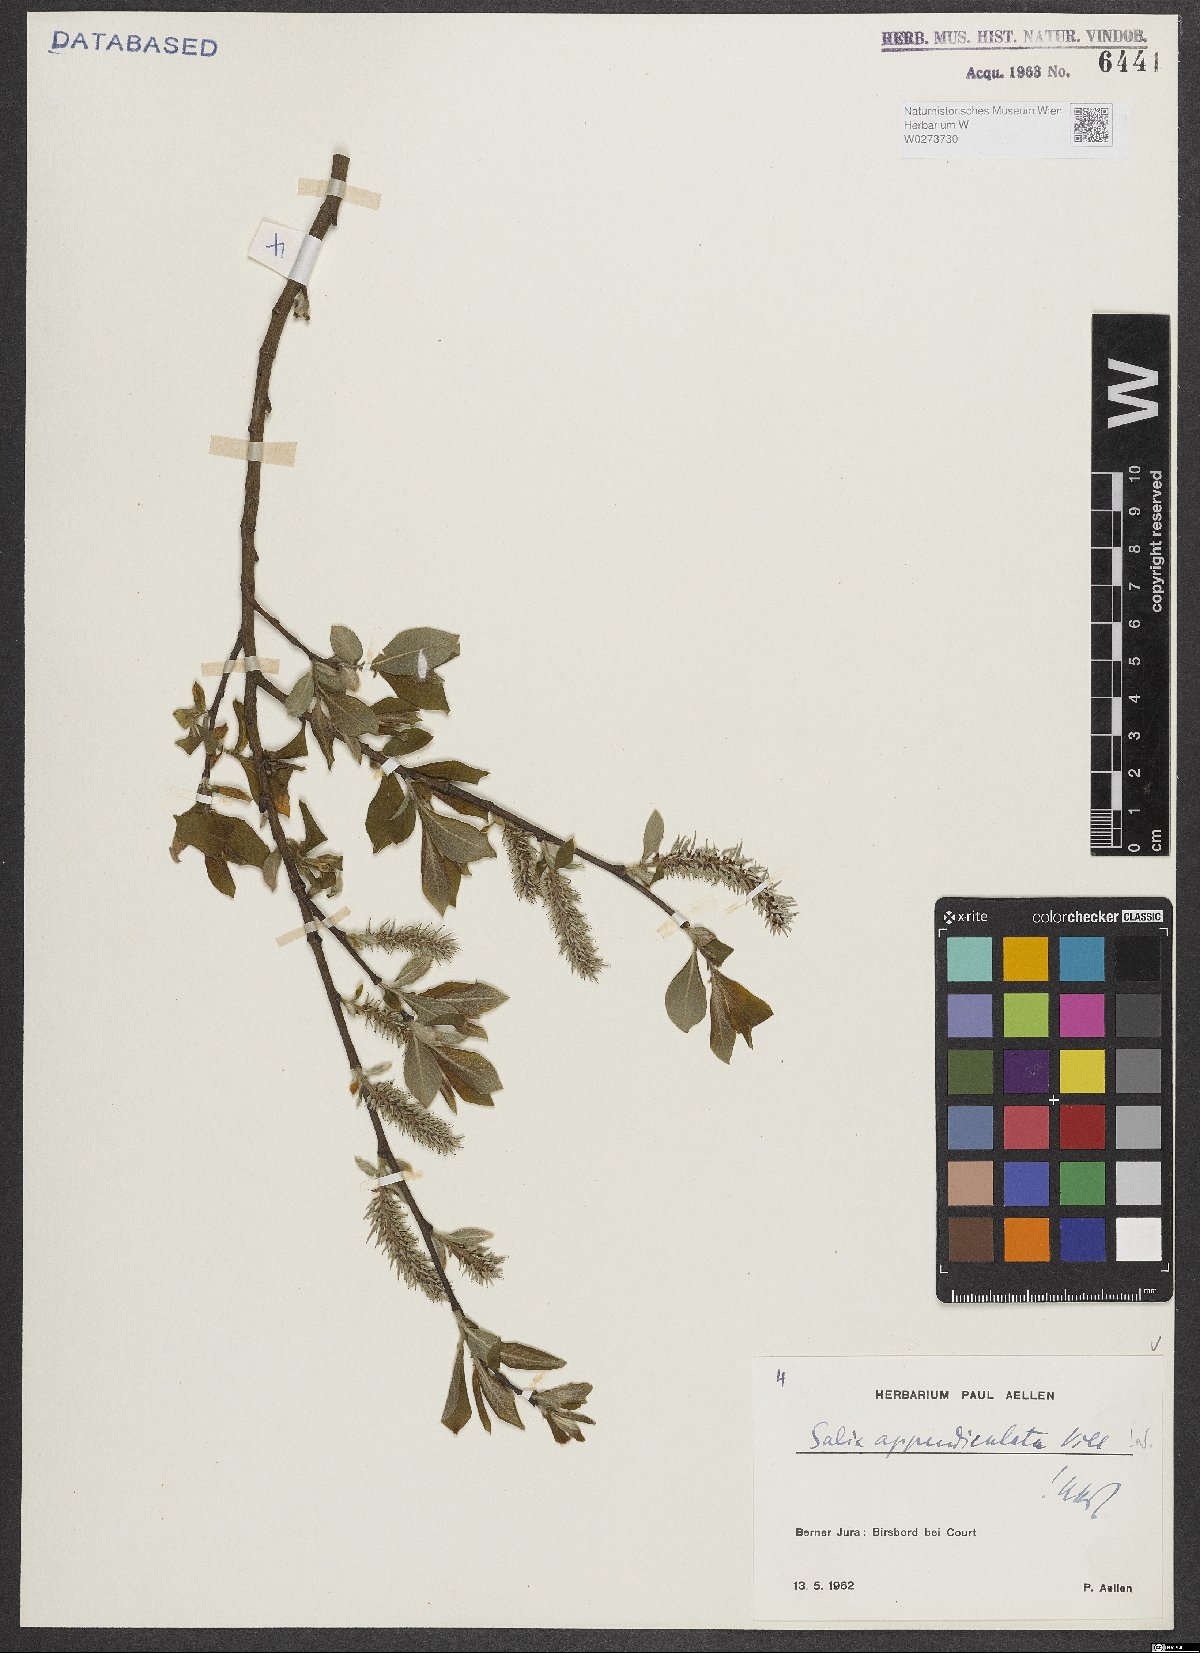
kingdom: Plantae
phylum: Tracheophyta
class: Magnoliopsida
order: Malpighiales
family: Salicaceae
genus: Salix
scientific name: Salix appendiculata
